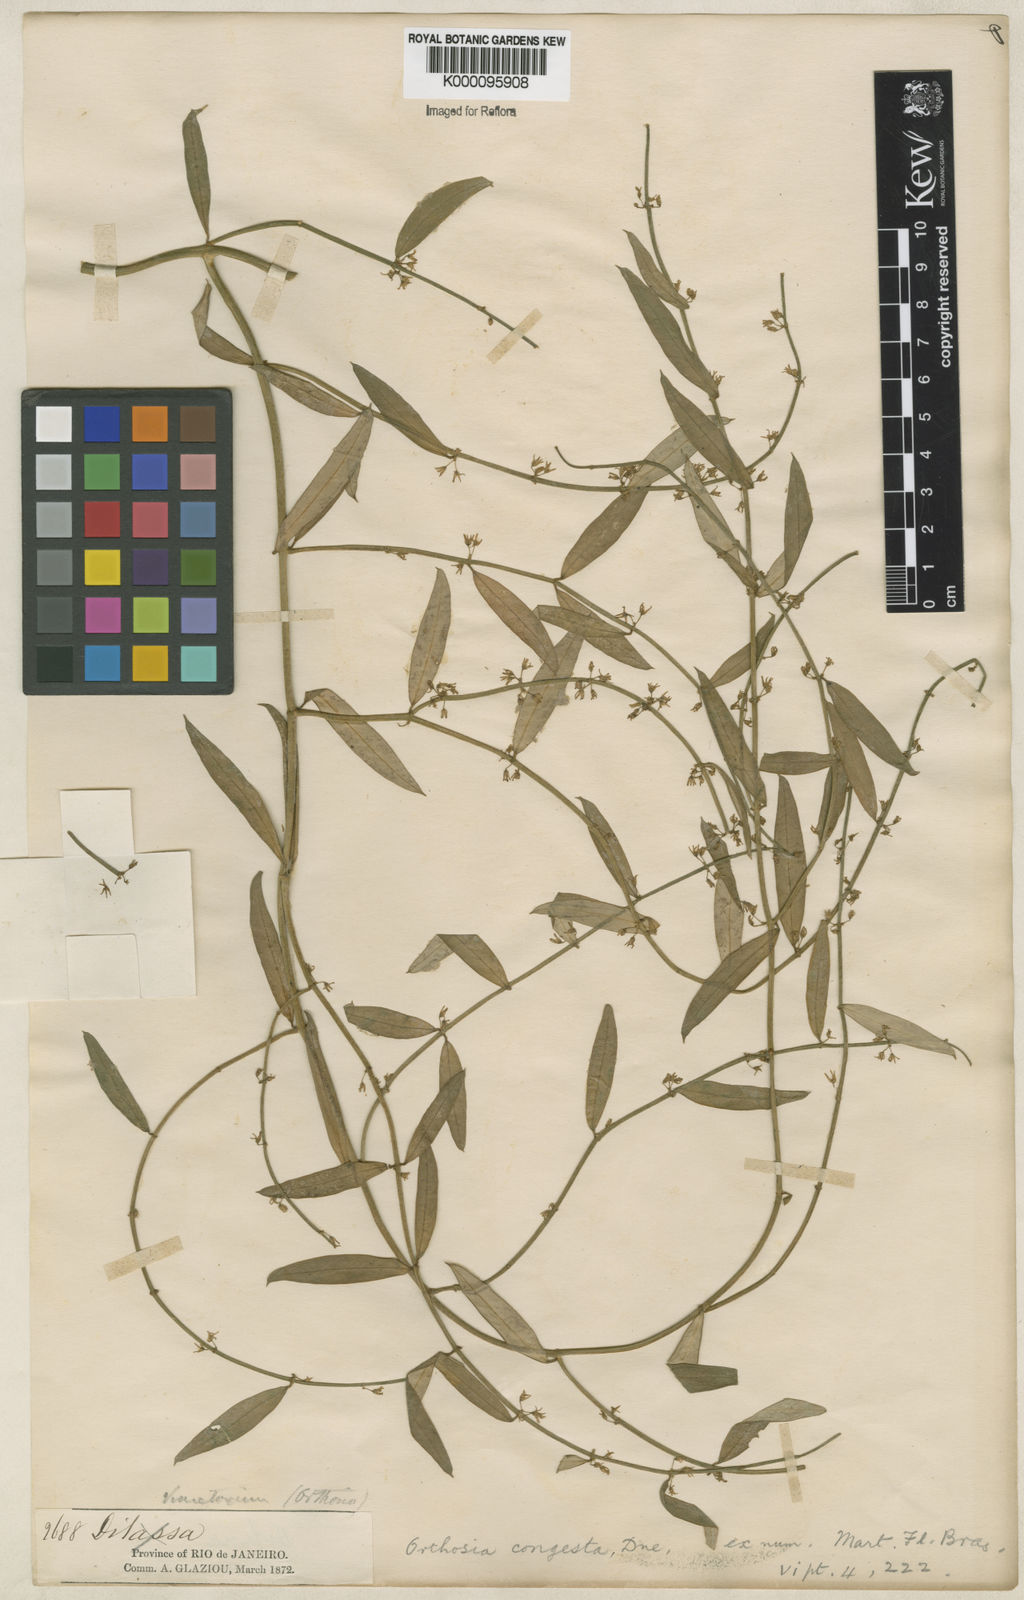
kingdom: Plantae
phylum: Tracheophyta
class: Magnoliopsida
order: Gentianales
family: Apocynaceae
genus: Orthosia
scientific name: Orthosia congesta
